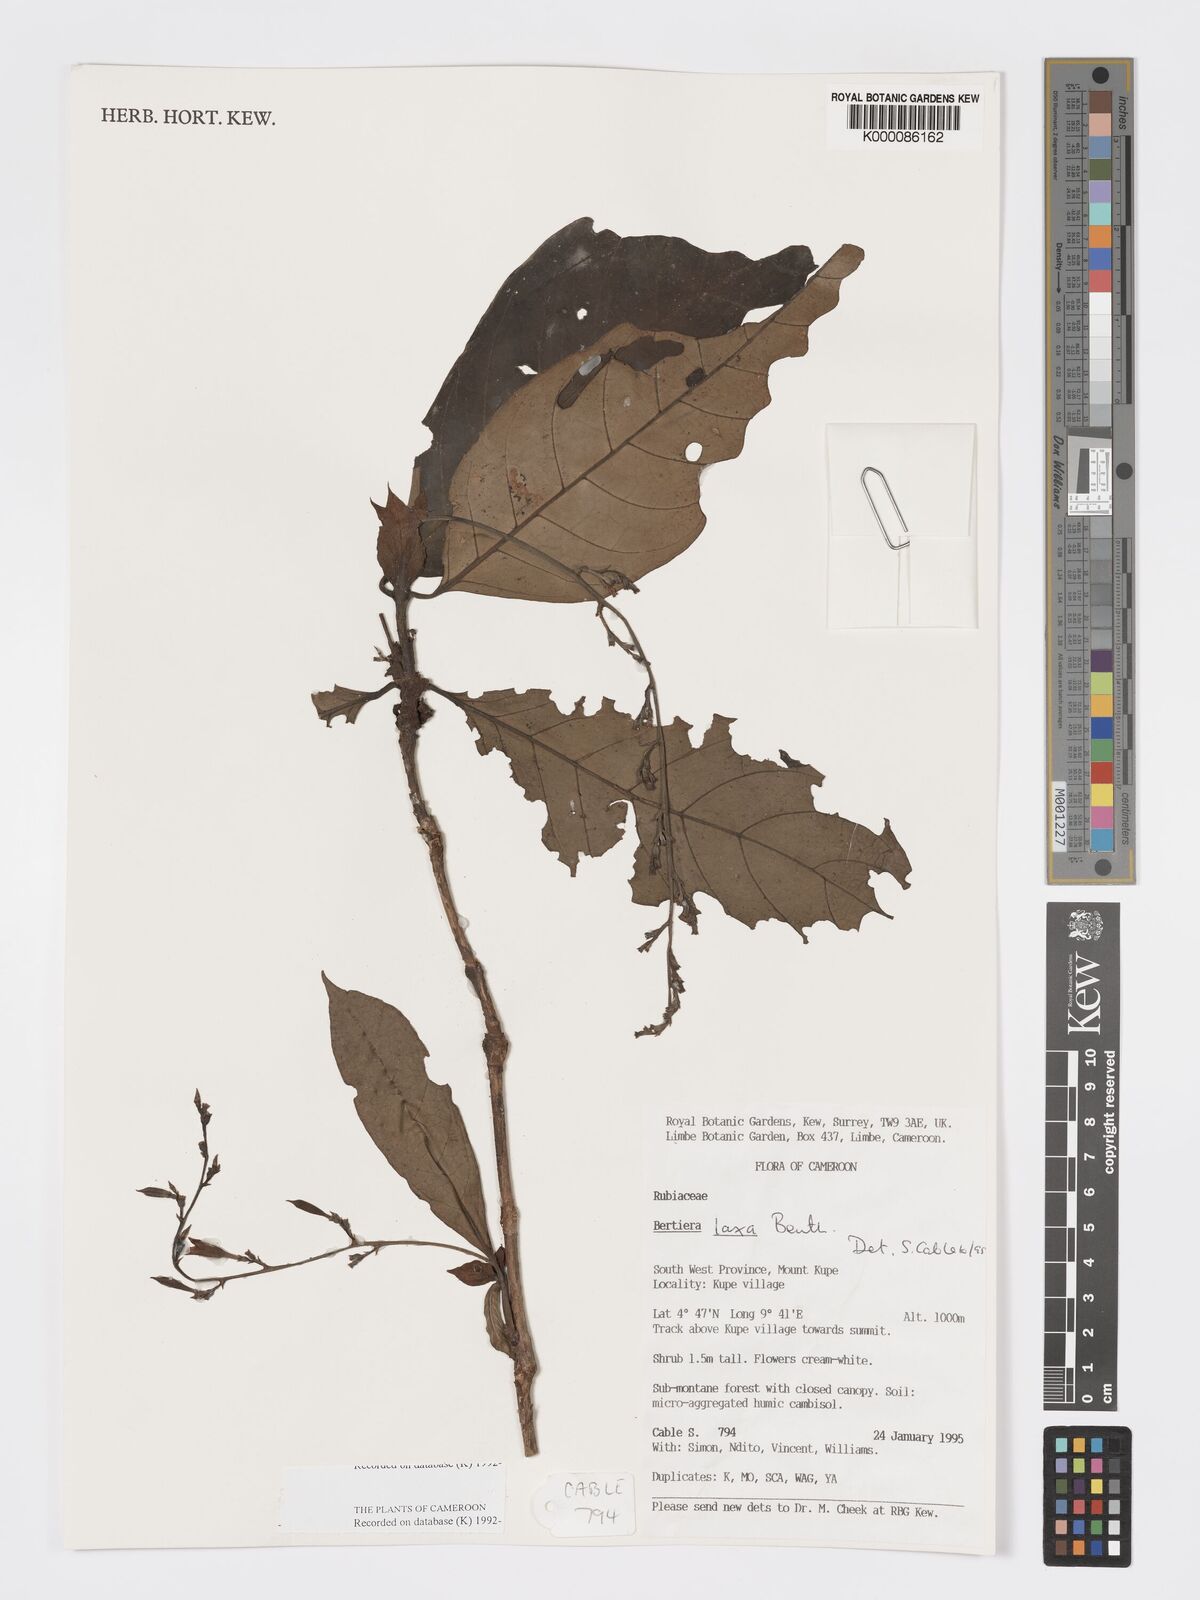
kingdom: Plantae
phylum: Tracheophyta
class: Magnoliopsida
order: Gentianales
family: Rubiaceae
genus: Bertiera
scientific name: Bertiera laxa
